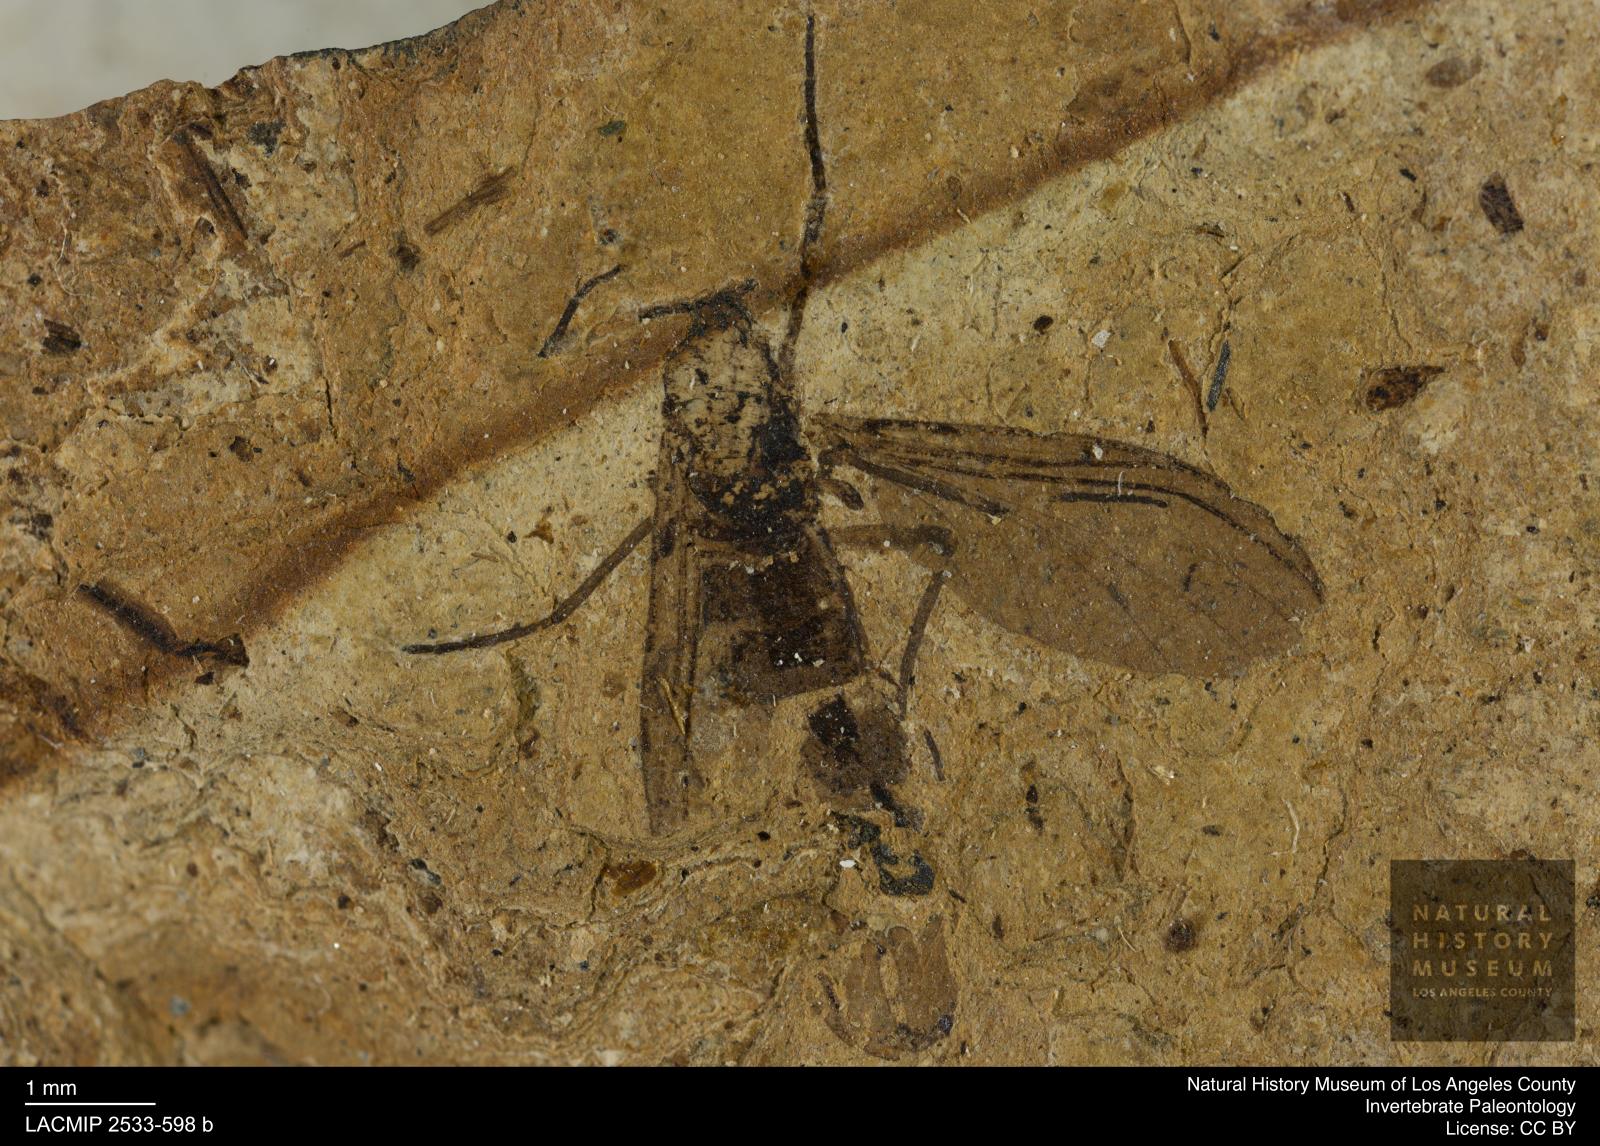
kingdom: Animalia
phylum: Arthropoda
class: Insecta
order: Diptera
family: Sciaridae
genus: Sciara
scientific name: Sciara pelidua
